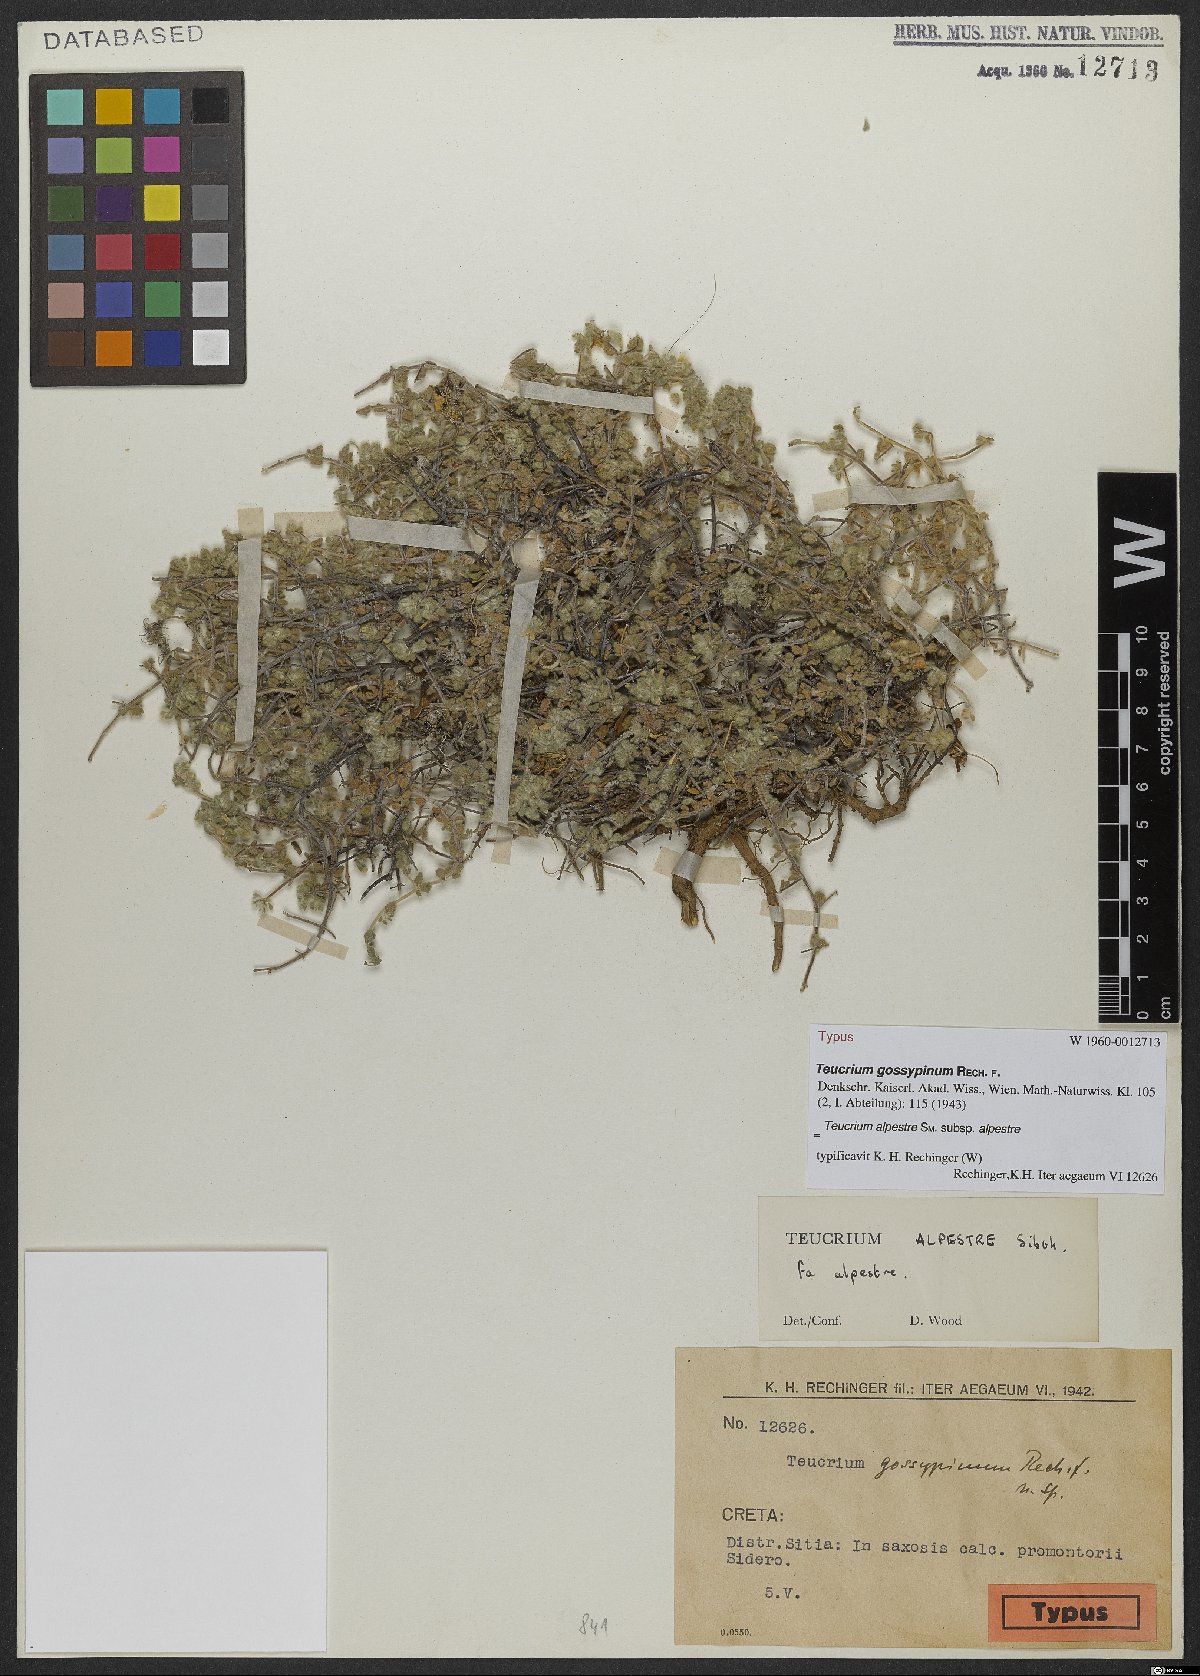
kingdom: Plantae
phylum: Tracheophyta
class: Magnoliopsida
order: Lamiales
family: Lamiaceae
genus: Teucrium
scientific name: Teucrium alpestre
